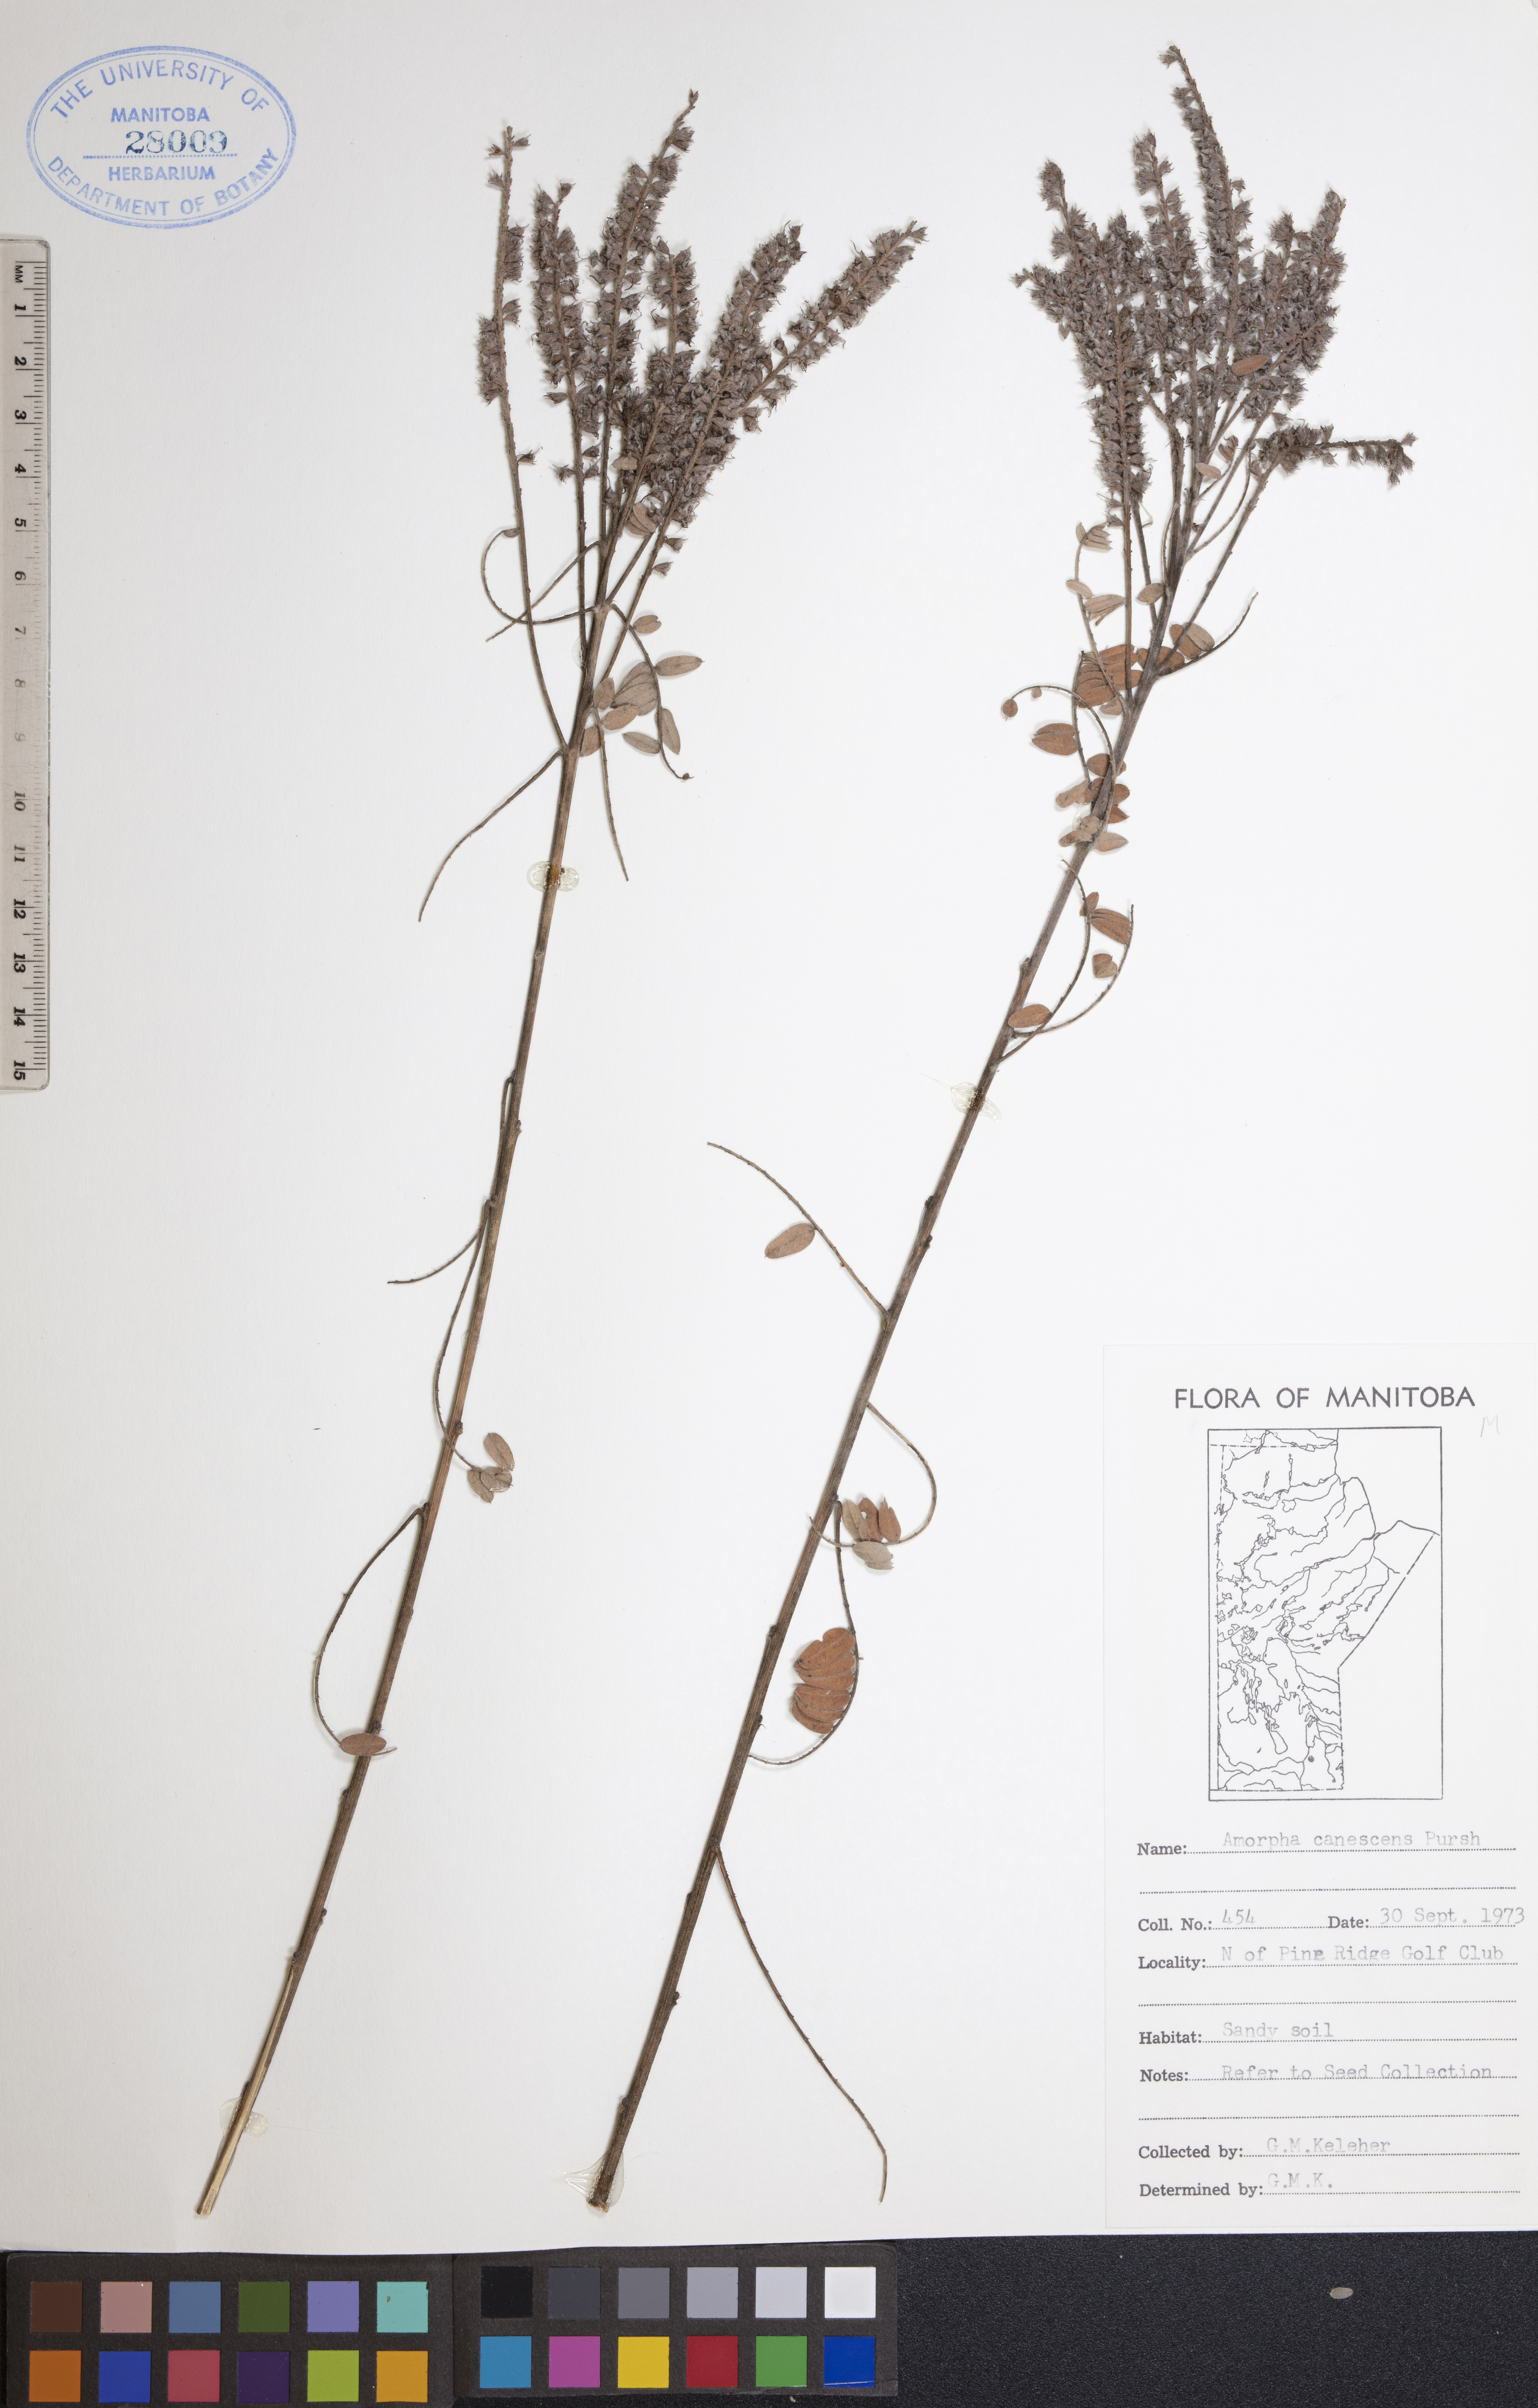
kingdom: Plantae
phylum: Tracheophyta
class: Magnoliopsida
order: Fabales
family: Fabaceae
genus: Amorpha
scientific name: Amorpha canescens
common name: Leadplant
